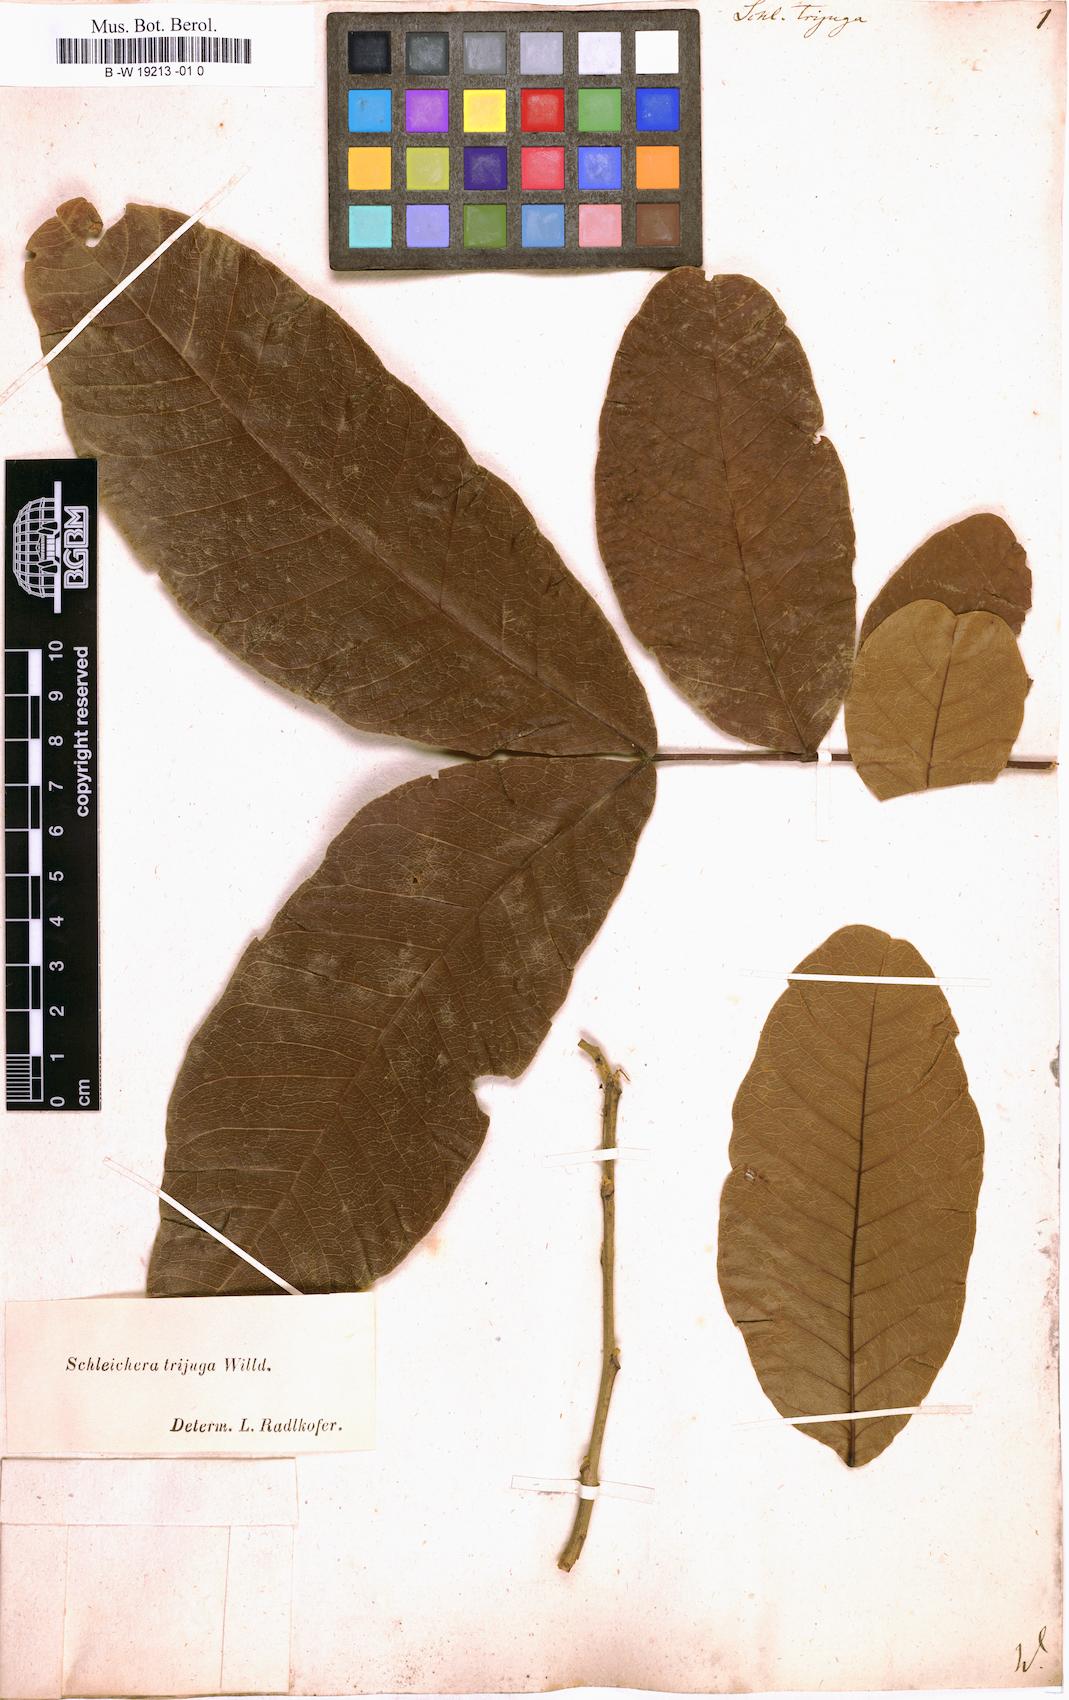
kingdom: Plantae
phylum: Tracheophyta
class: Magnoliopsida
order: Sapindales
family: Sapindaceae
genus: Schleichera
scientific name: Schleichera oleosa
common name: Malay lactree
